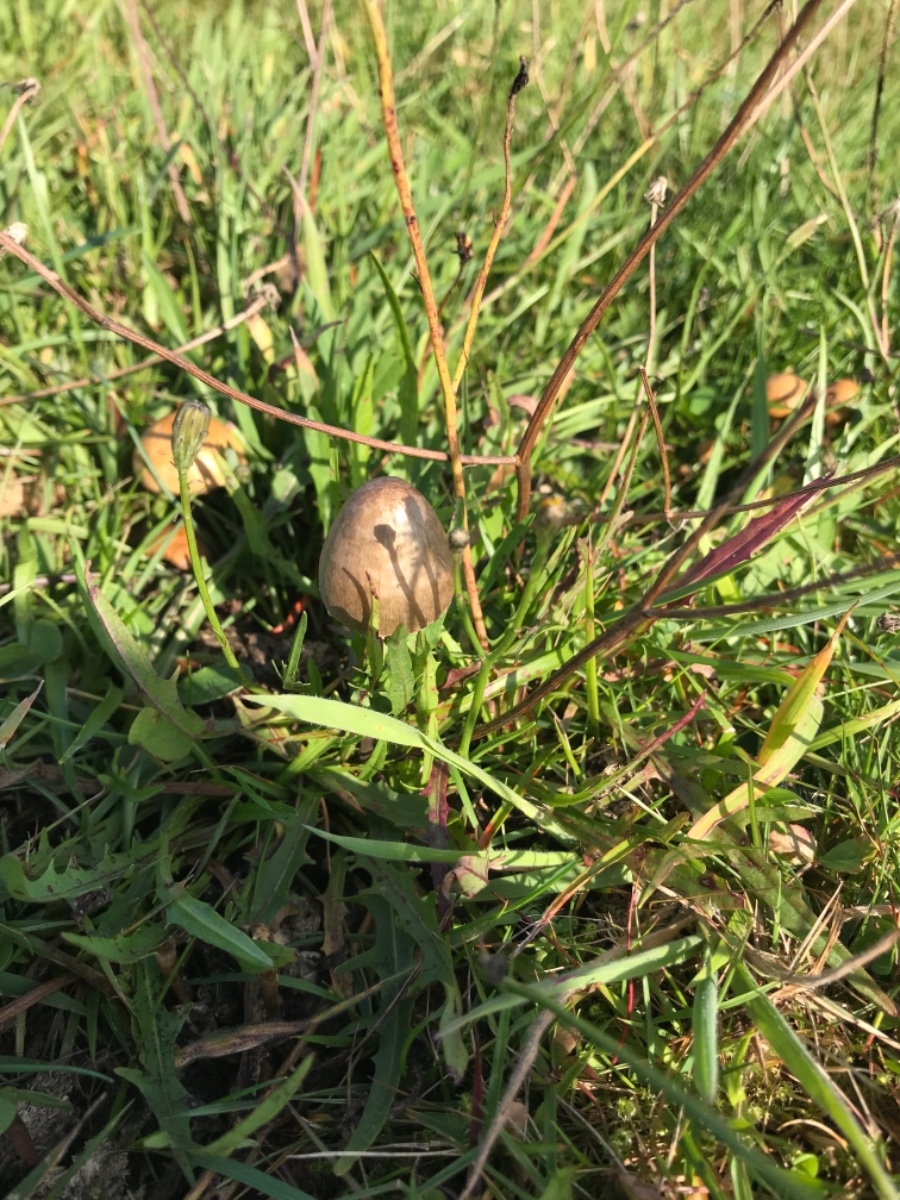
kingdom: Fungi
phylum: Basidiomycota
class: Agaricomycetes
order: Agaricales
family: Bolbitiaceae
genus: Panaeolus
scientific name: Panaeolus papilionaceus
